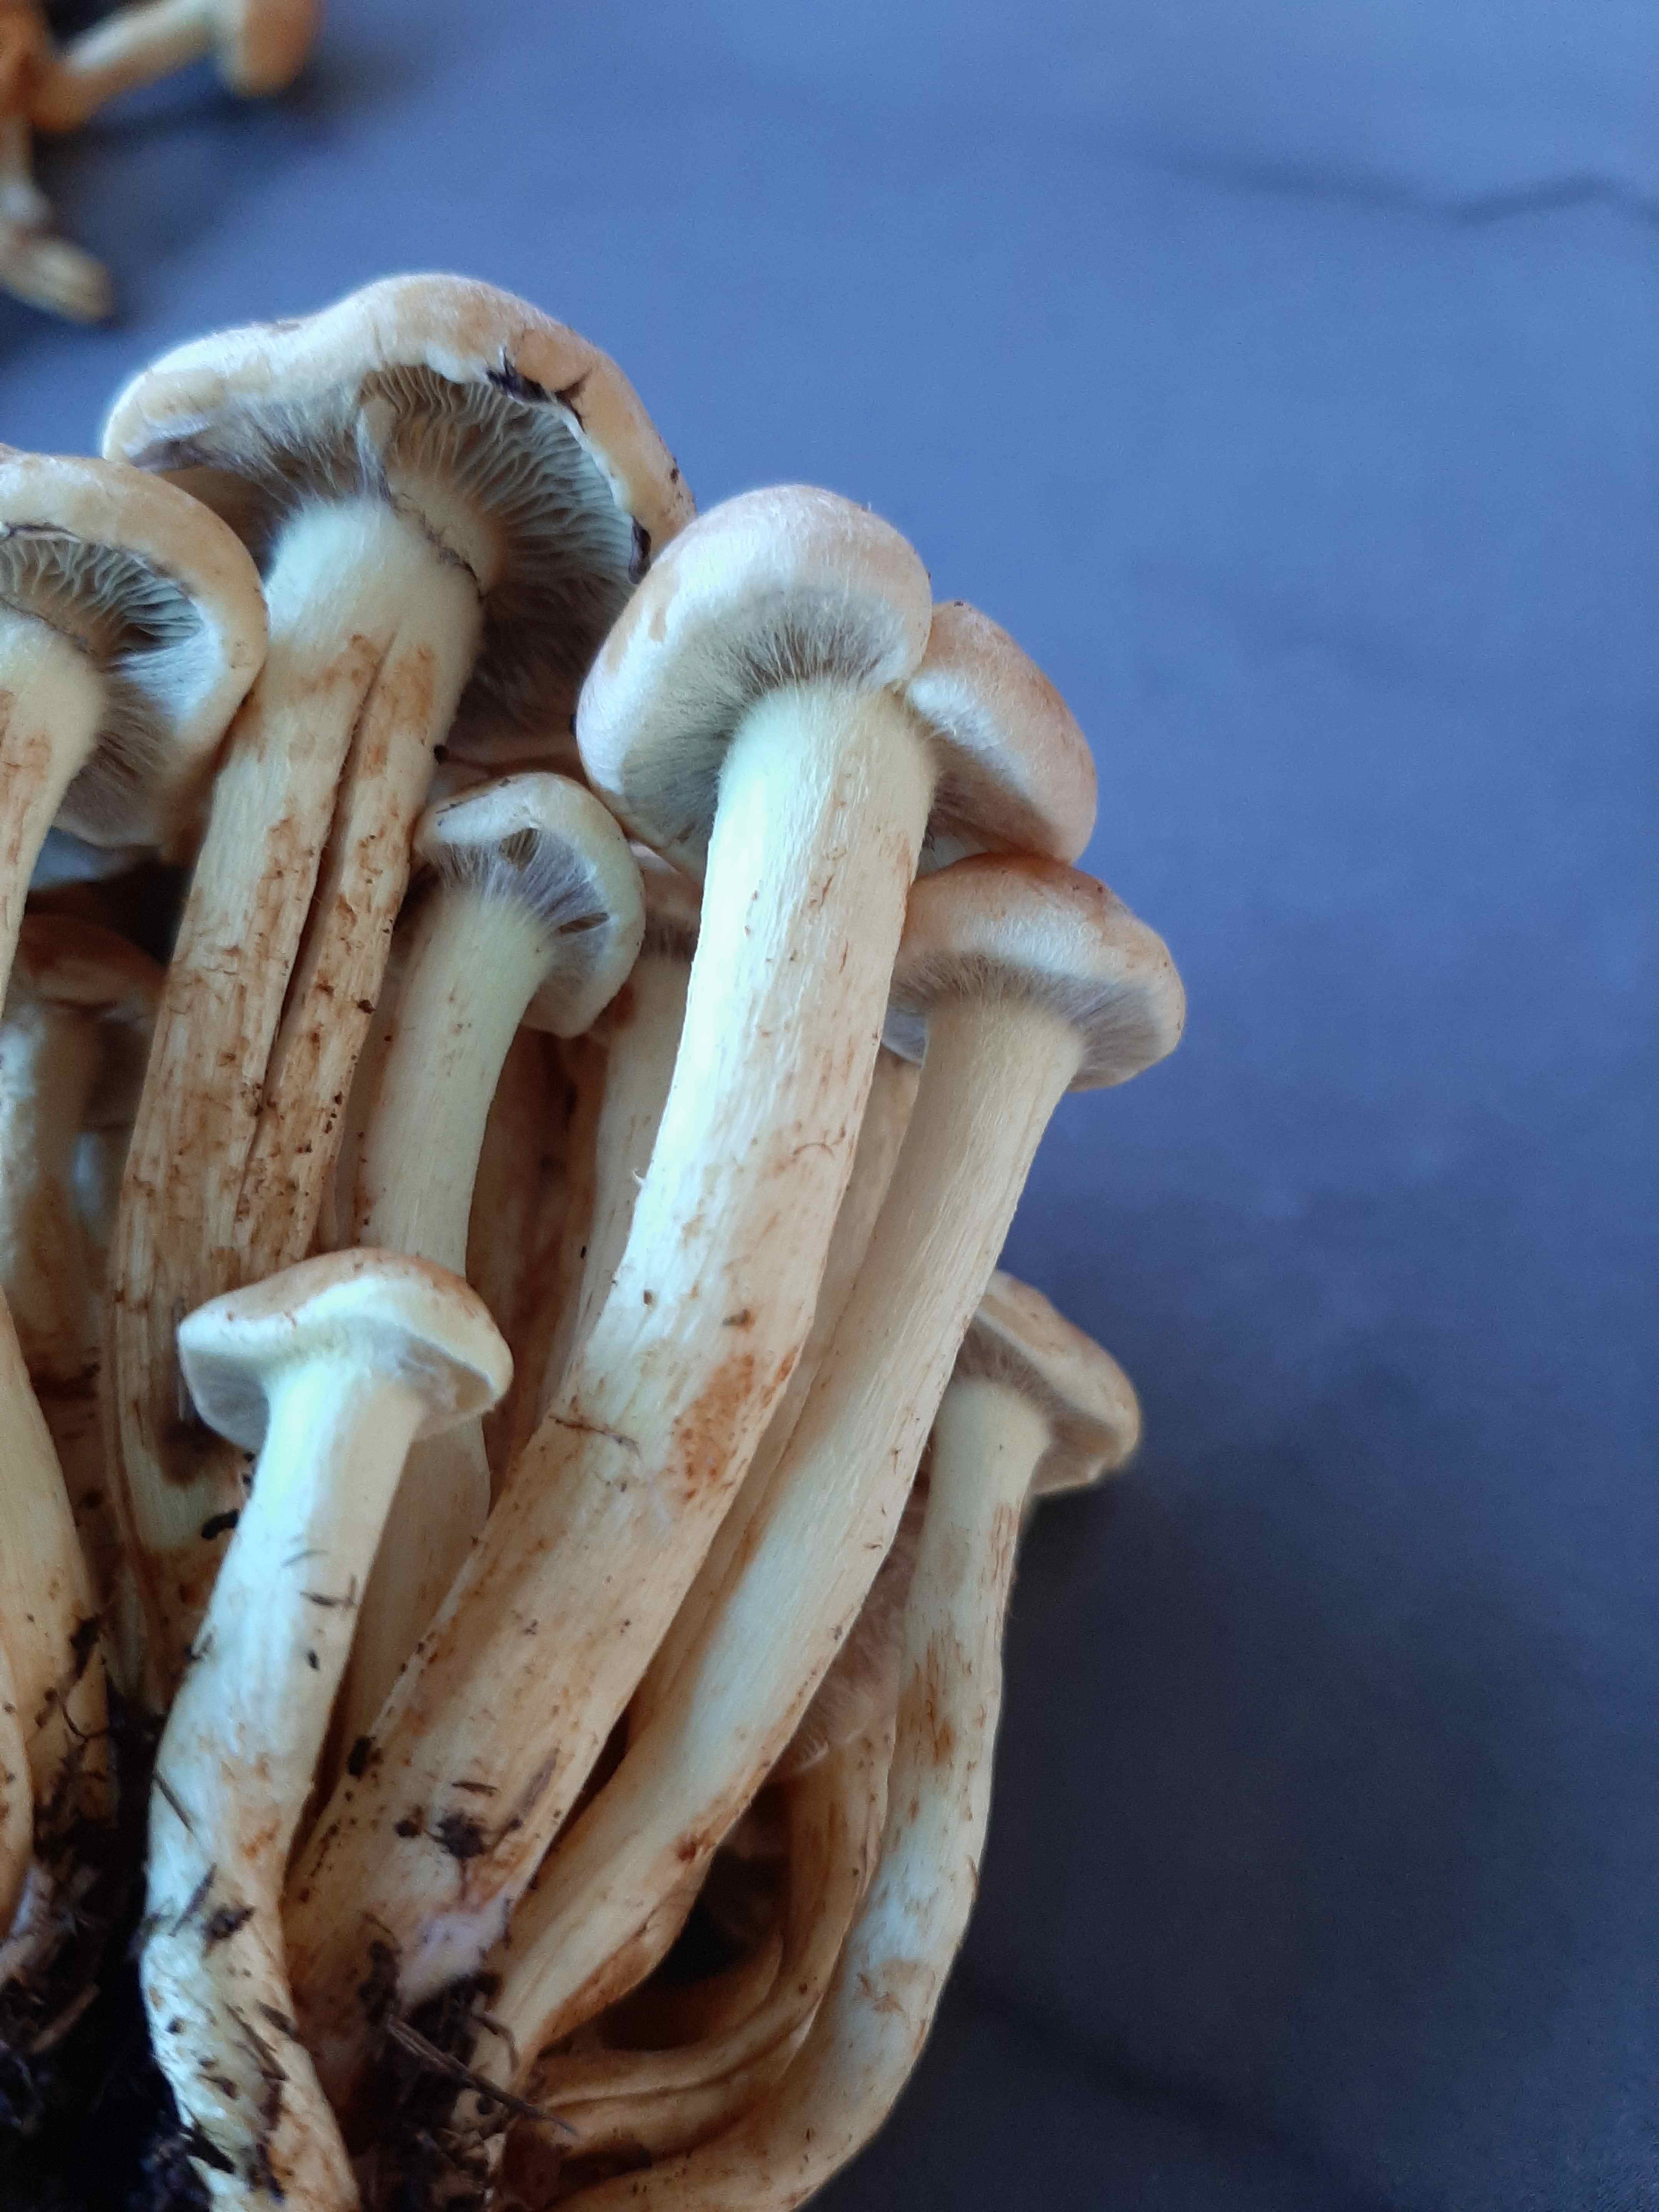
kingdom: Fungi
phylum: Basidiomycota
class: Agaricomycetes
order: Agaricales
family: Strophariaceae
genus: Hypholoma
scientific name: Hypholoma fasciculare
